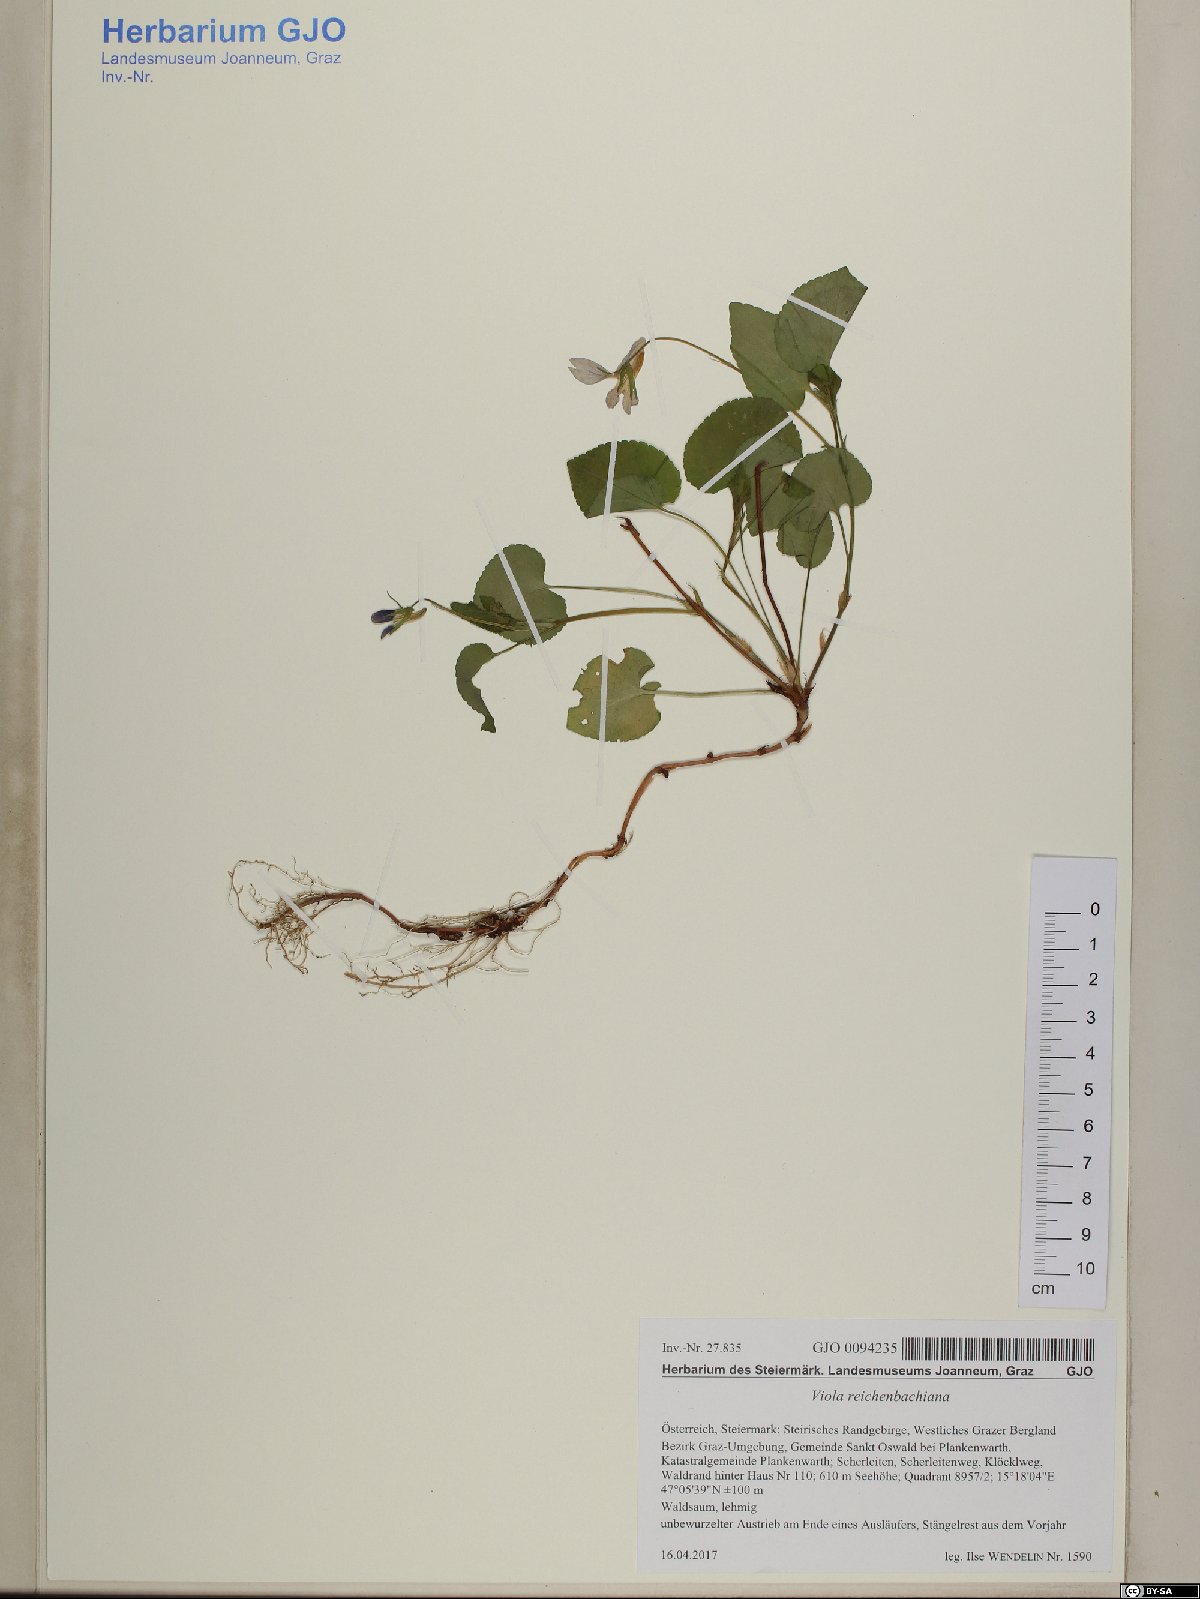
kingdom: Plantae
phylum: Tracheophyta
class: Magnoliopsida
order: Malpighiales
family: Violaceae
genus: Viola
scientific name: Viola reichenbachiana
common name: Early dog-violet
